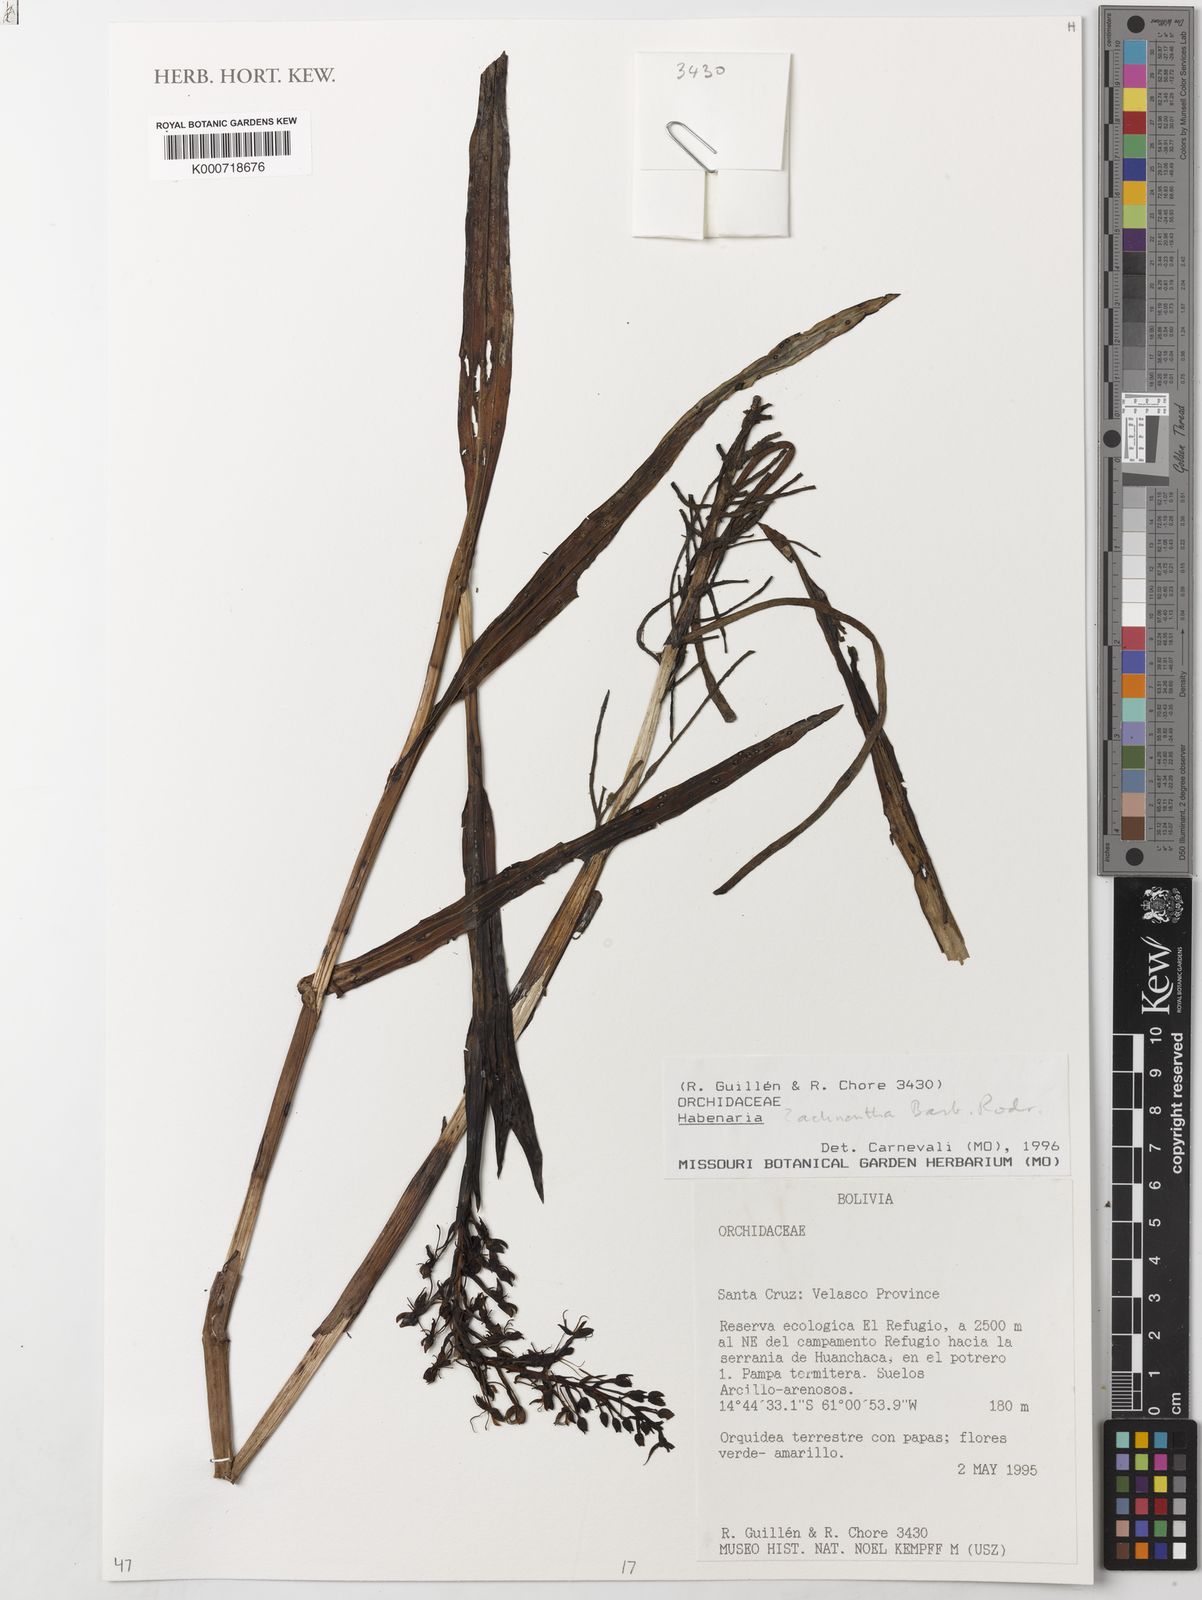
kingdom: Plantae
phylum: Tracheophyta
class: Liliopsida
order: Asparagales
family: Orchidaceae
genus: Habenaria
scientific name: Habenaria achnantha
